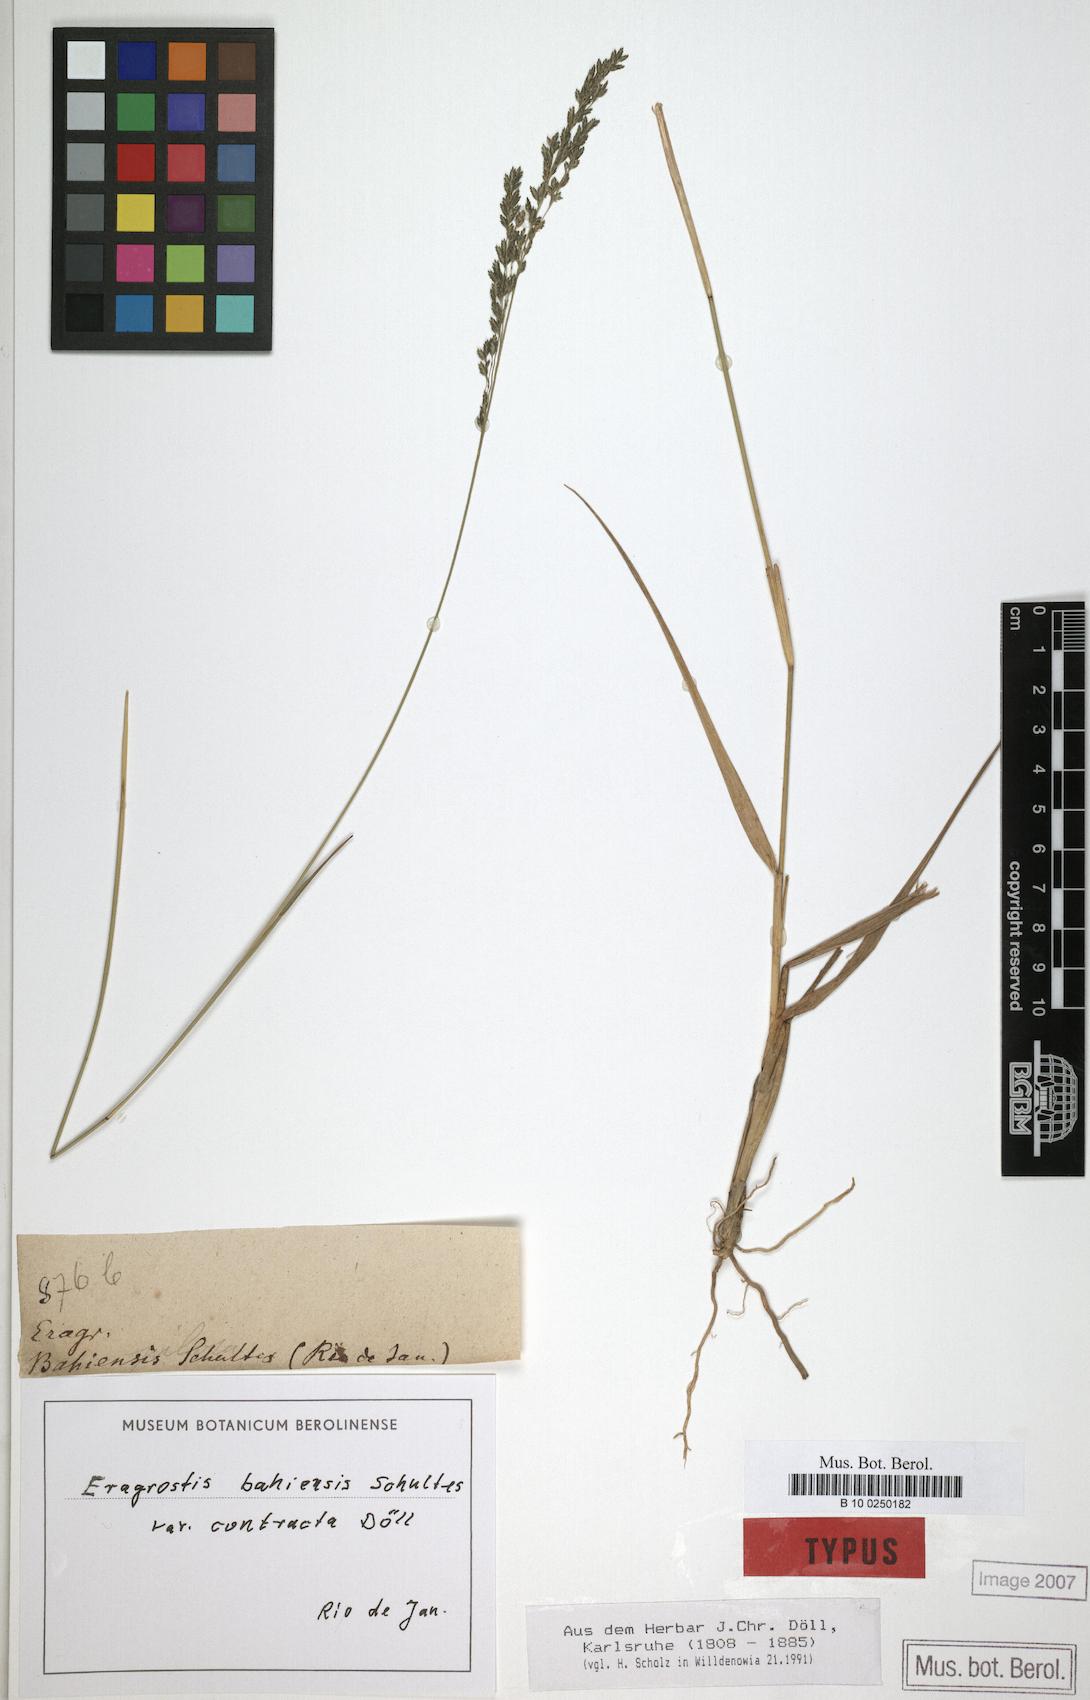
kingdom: Plantae
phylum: Tracheophyta
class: Liliopsida
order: Poales
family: Poaceae
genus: Eragrostis
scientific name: Eragrostis bahiensis
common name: Bahia lovegrass
